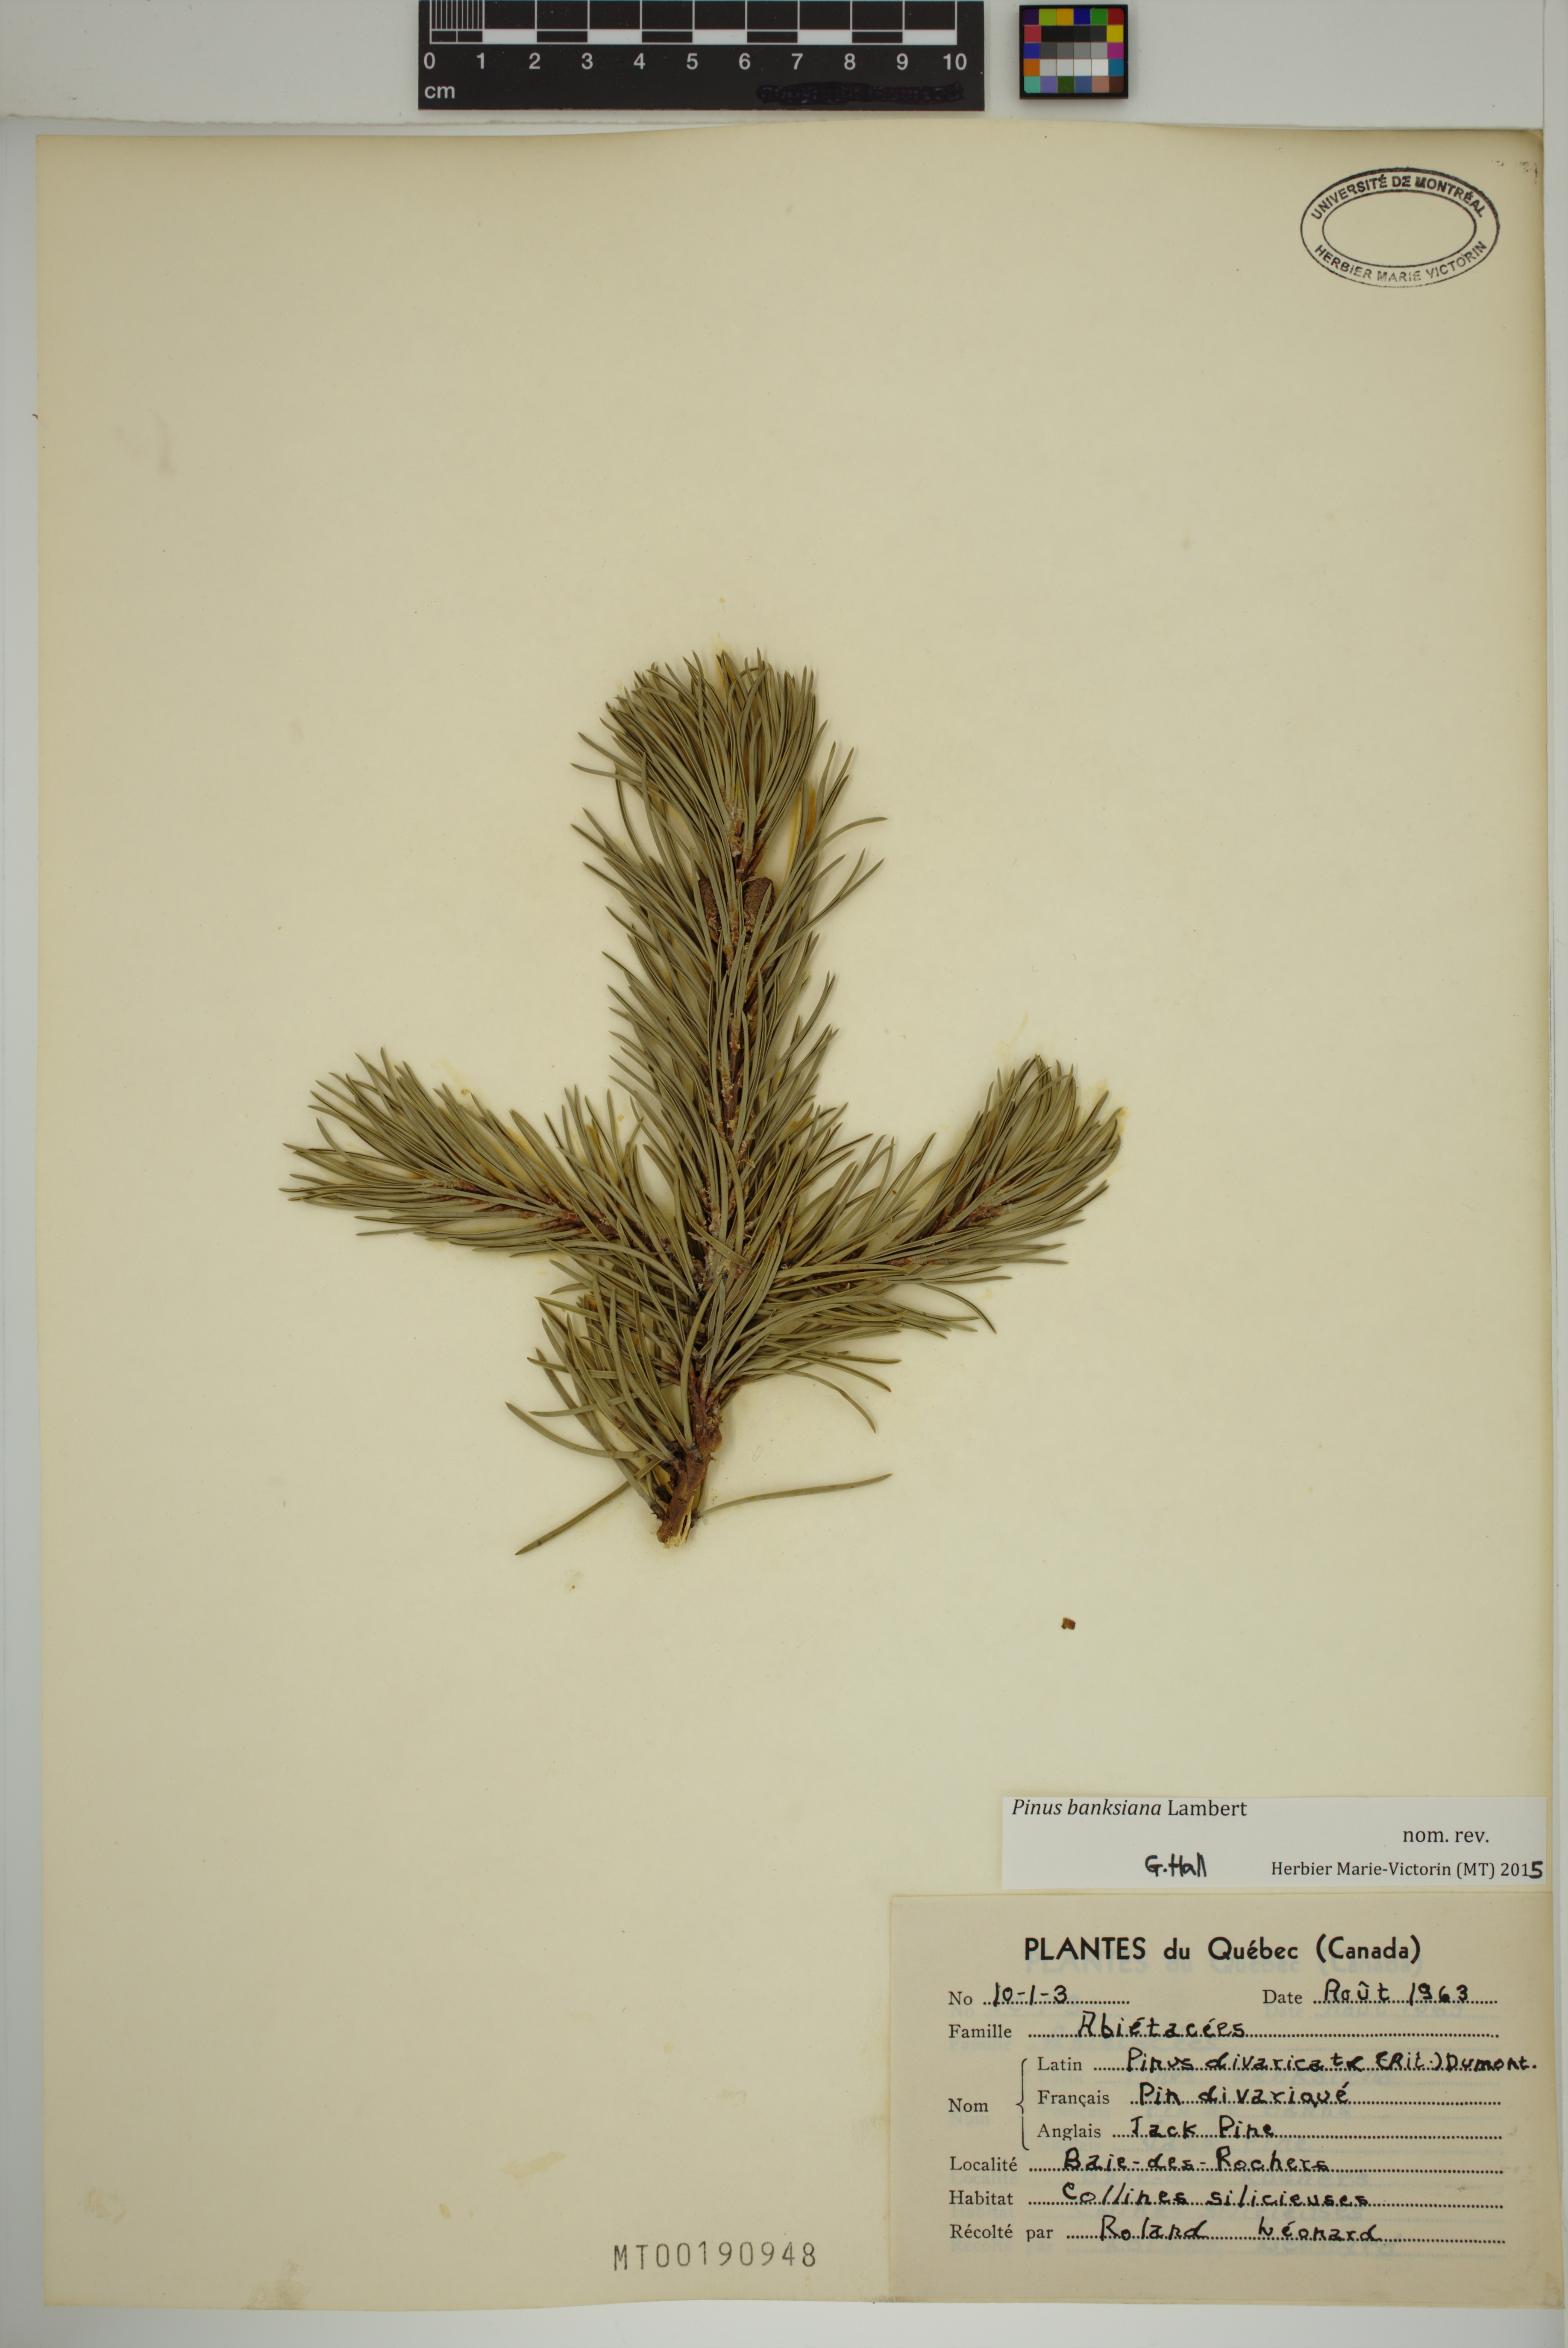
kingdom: Plantae
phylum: Tracheophyta
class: Pinopsida
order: Pinales
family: Pinaceae
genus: Pinus
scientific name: Pinus banksiana
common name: Jack pine
